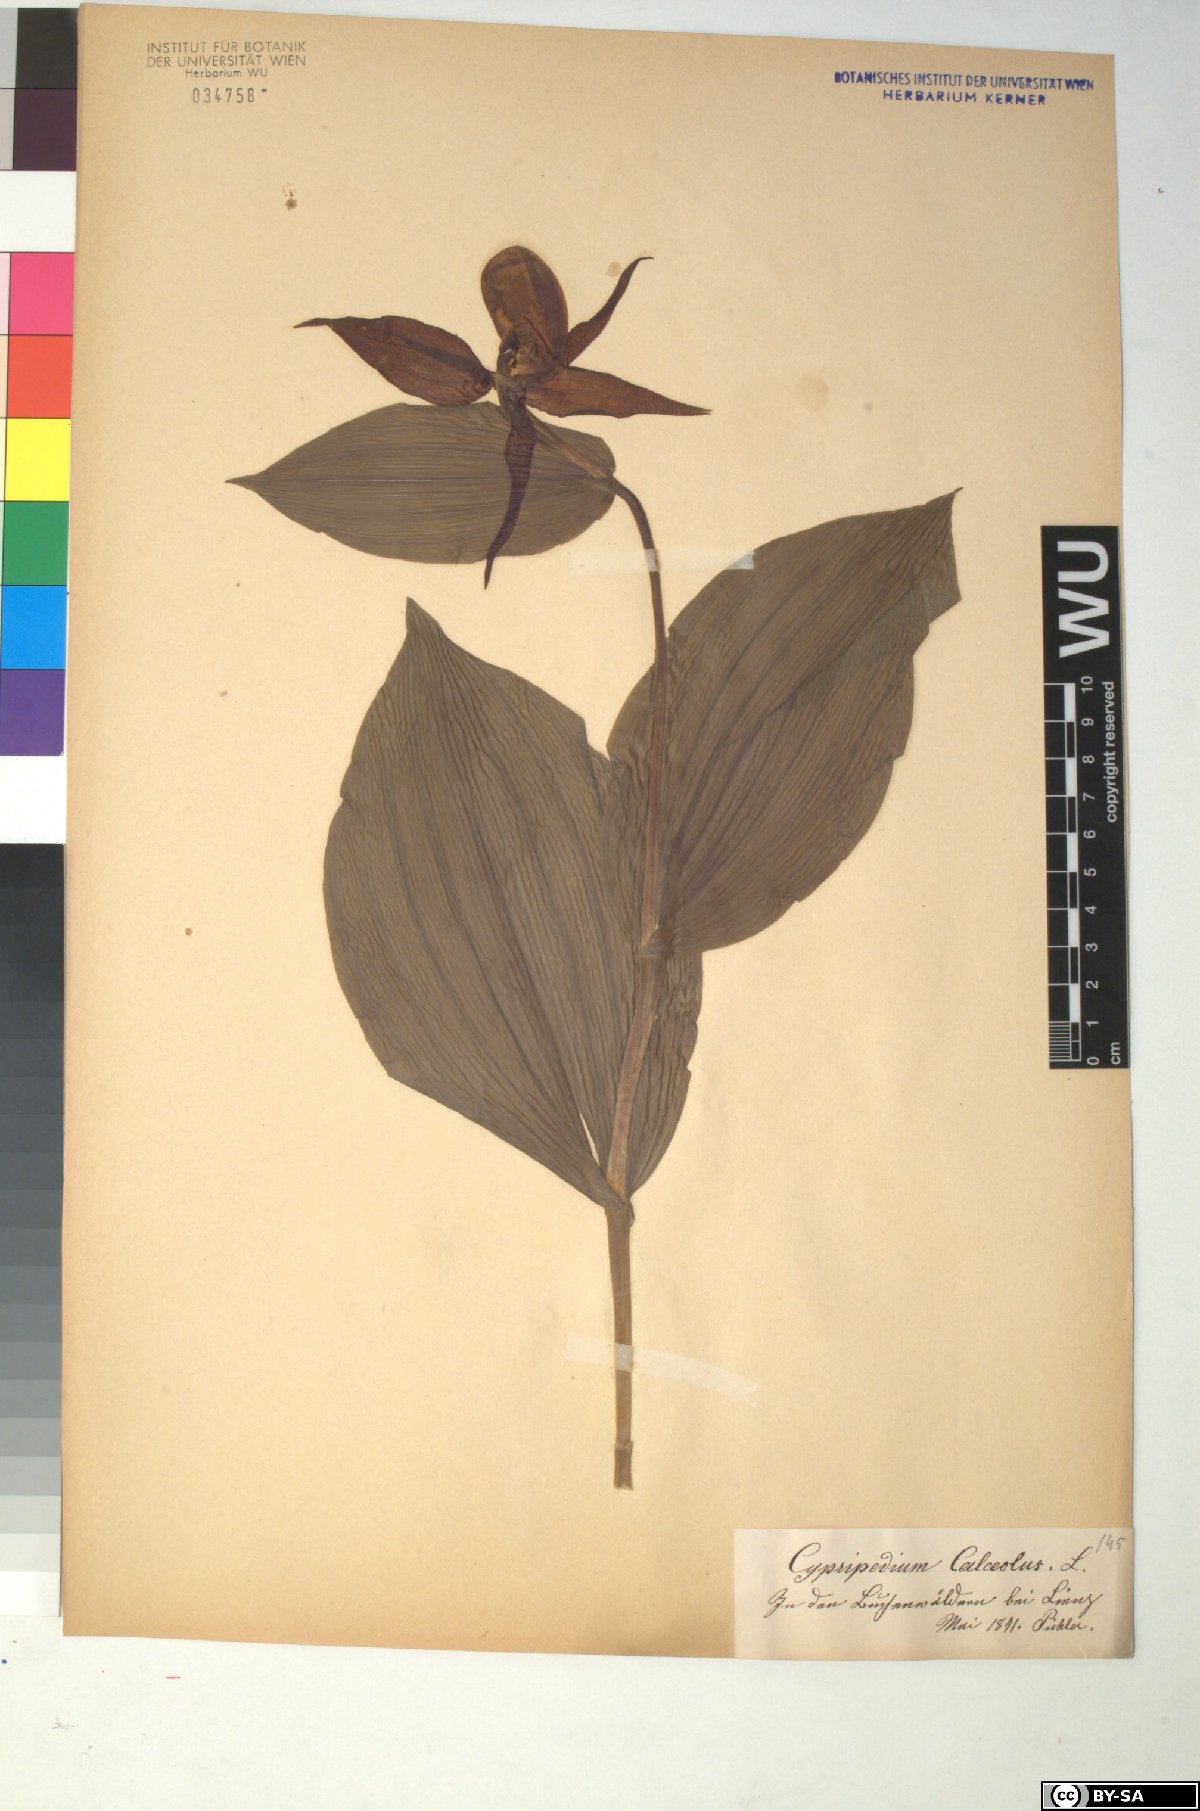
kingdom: Plantae
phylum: Tracheophyta
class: Liliopsida
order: Asparagales
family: Orchidaceae
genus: Cypripedium
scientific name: Cypripedium calceolus
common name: Lady's-slipper
